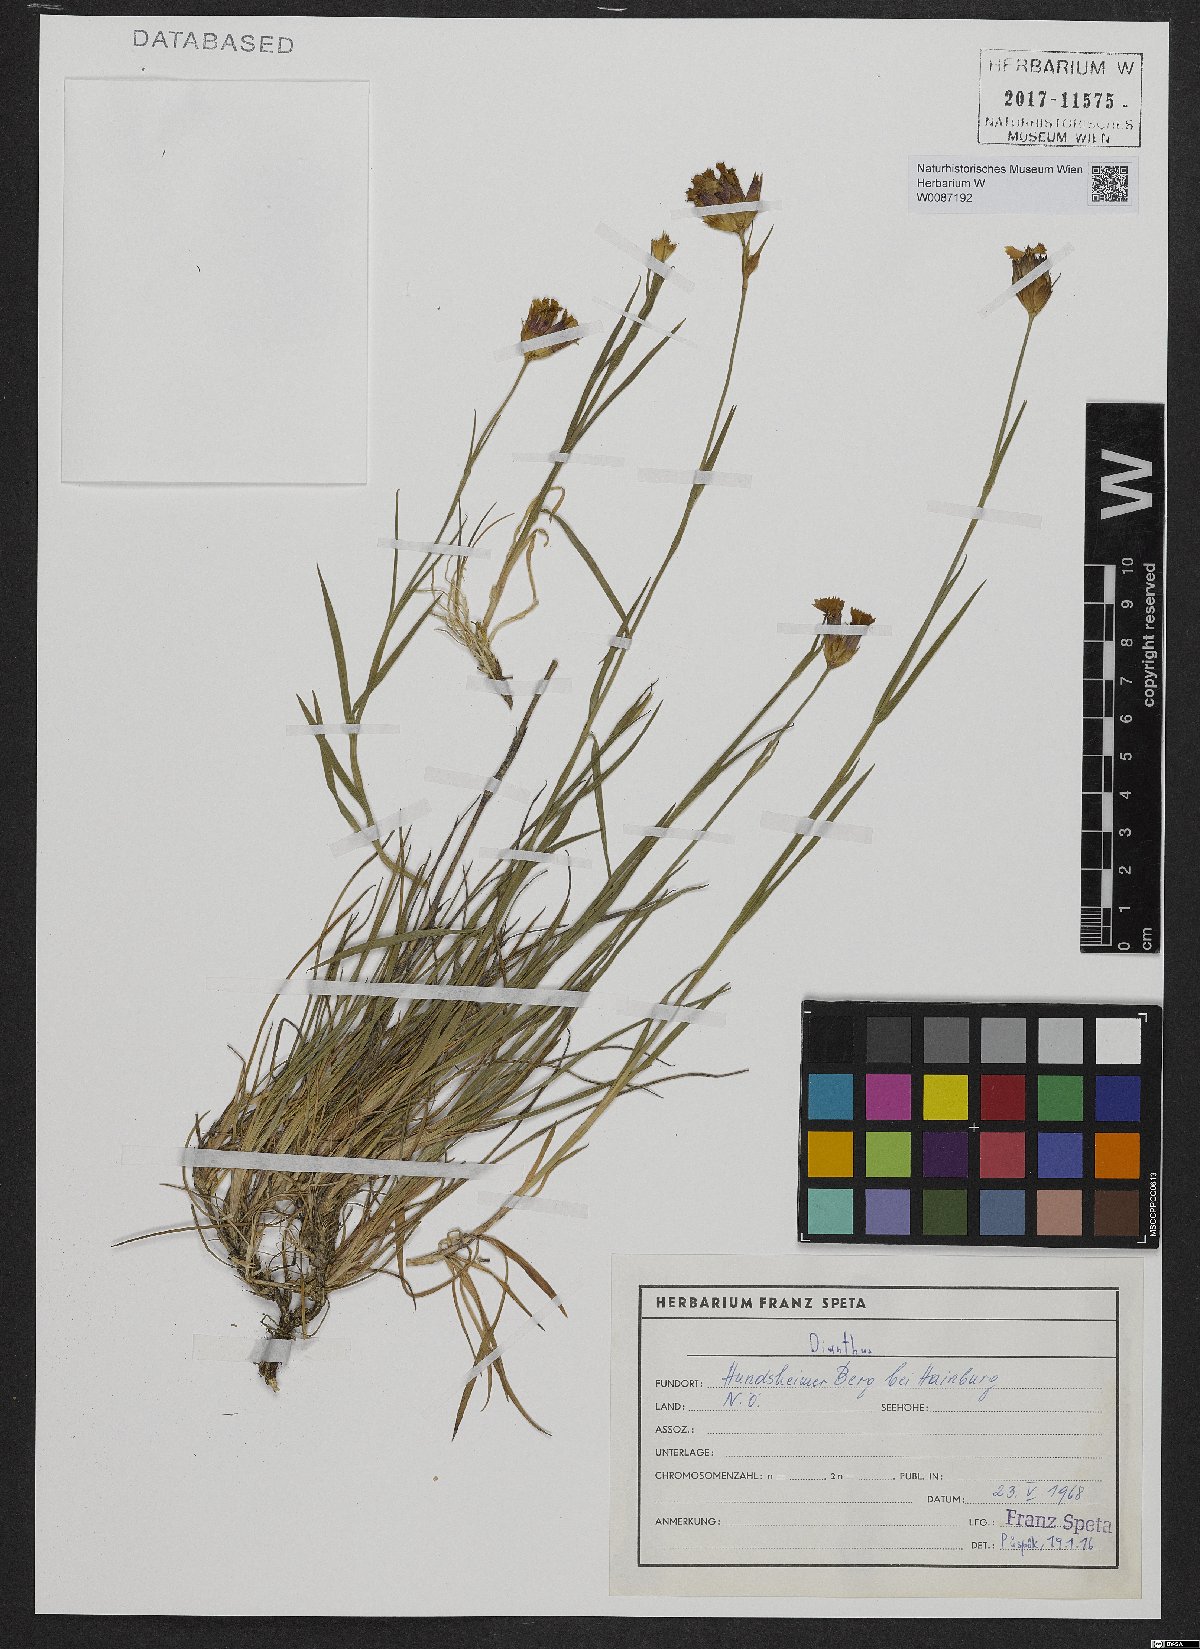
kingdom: Plantae
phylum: Tracheophyta
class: Magnoliopsida
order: Caryophyllales
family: Caryophyllaceae
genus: Dianthus
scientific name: Dianthus pontederae
